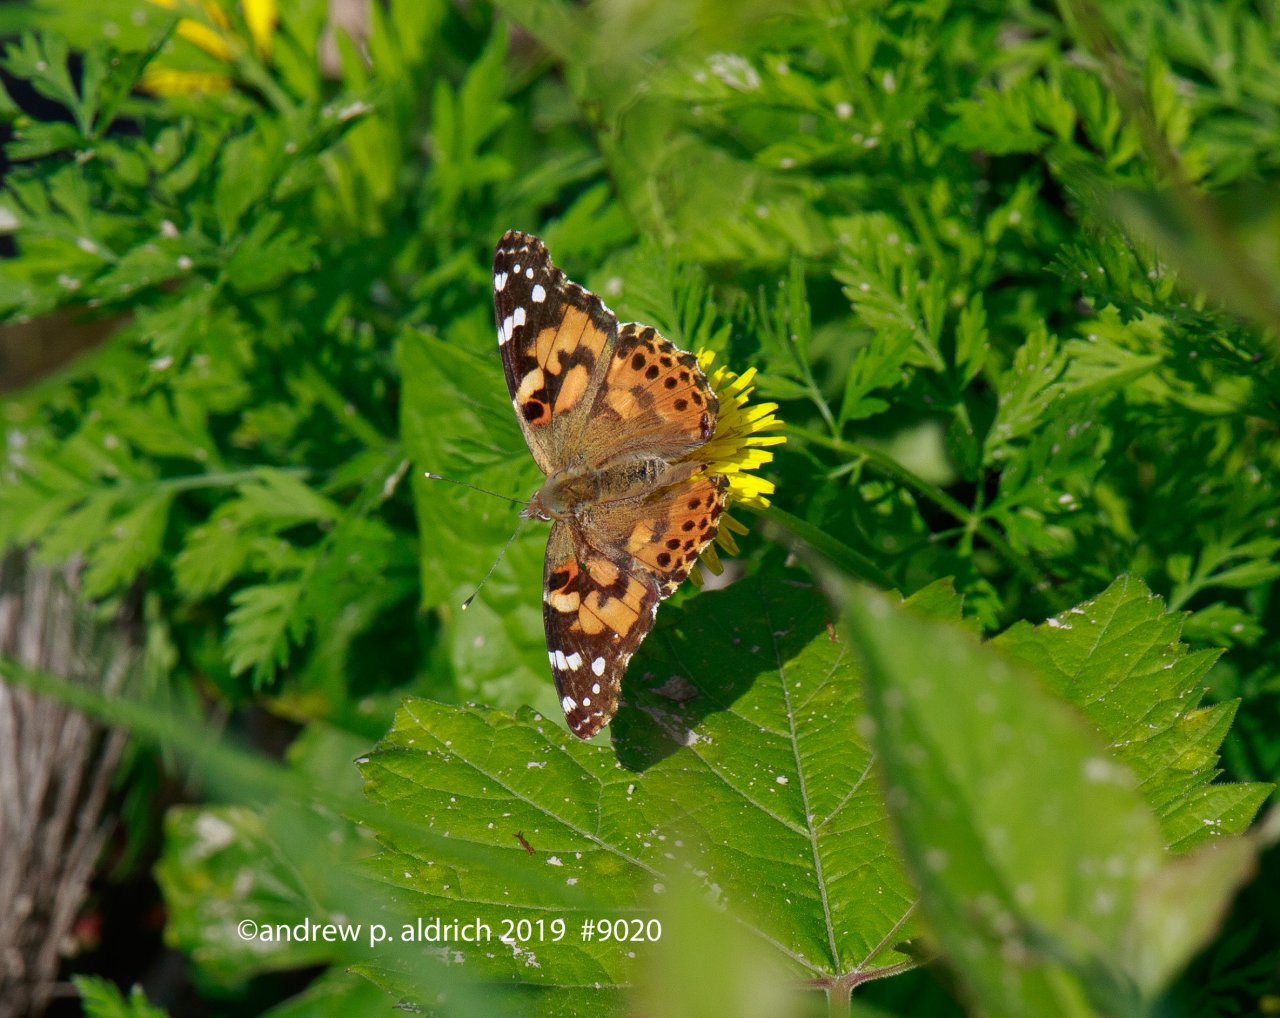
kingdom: Animalia
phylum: Arthropoda
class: Insecta
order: Lepidoptera
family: Nymphalidae
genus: Vanessa
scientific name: Vanessa cardui
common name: Painted Lady
